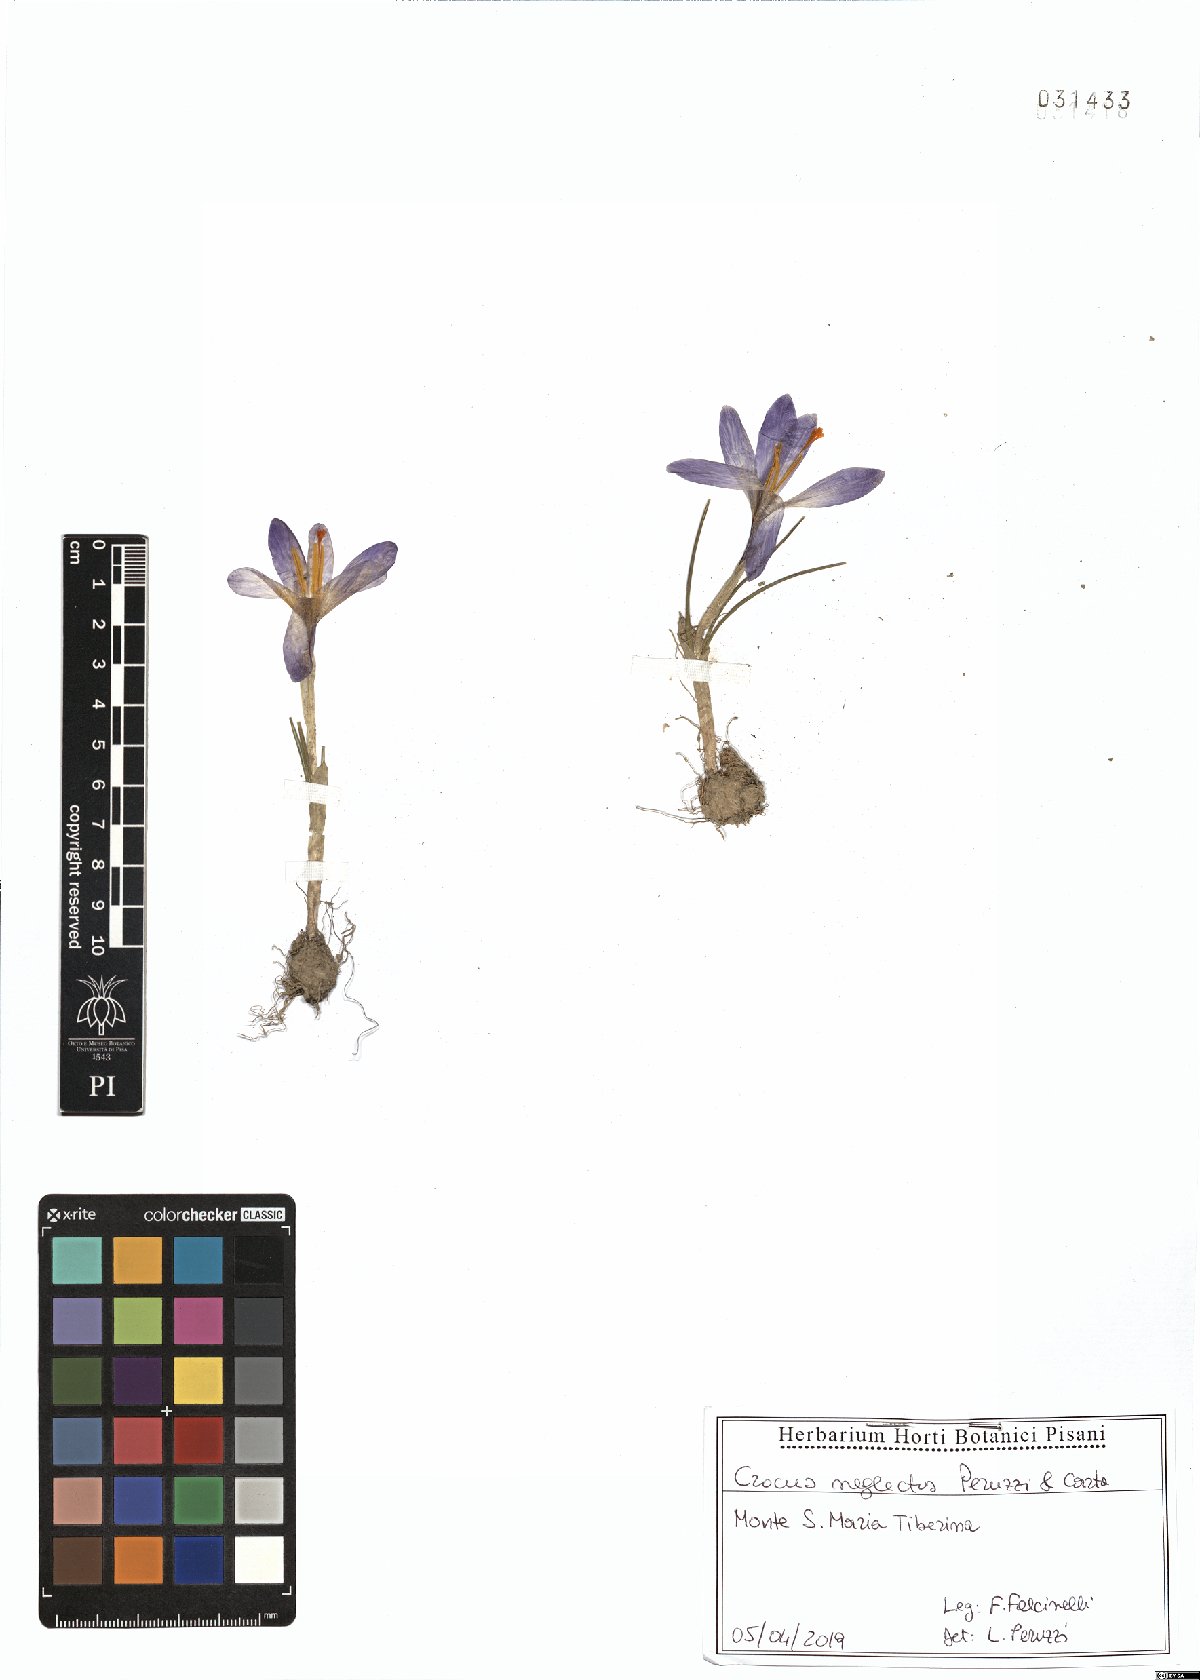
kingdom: Plantae
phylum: Tracheophyta
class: Liliopsida
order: Asparagales
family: Iridaceae
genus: Crocus
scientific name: Crocus neglectus
